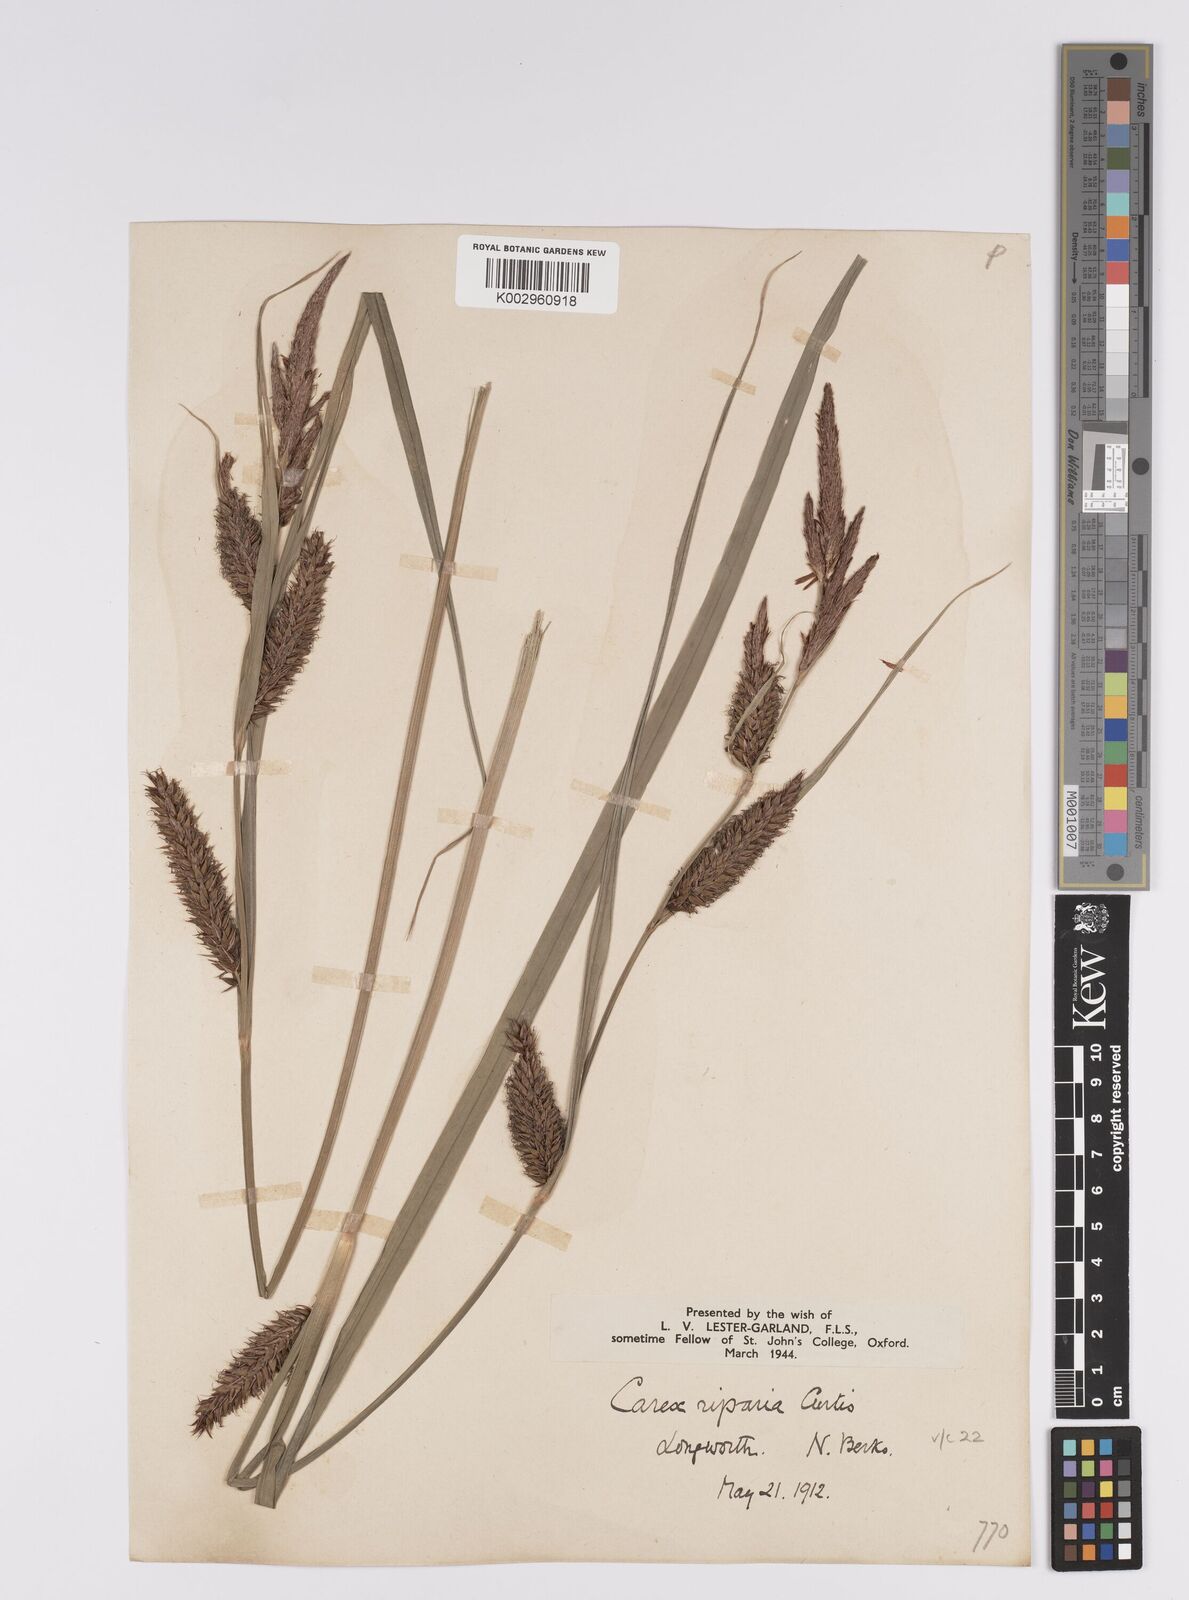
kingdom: Plantae
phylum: Tracheophyta
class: Liliopsida
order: Poales
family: Cyperaceae
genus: Carex
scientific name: Carex riparia
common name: Greater pond-sedge
